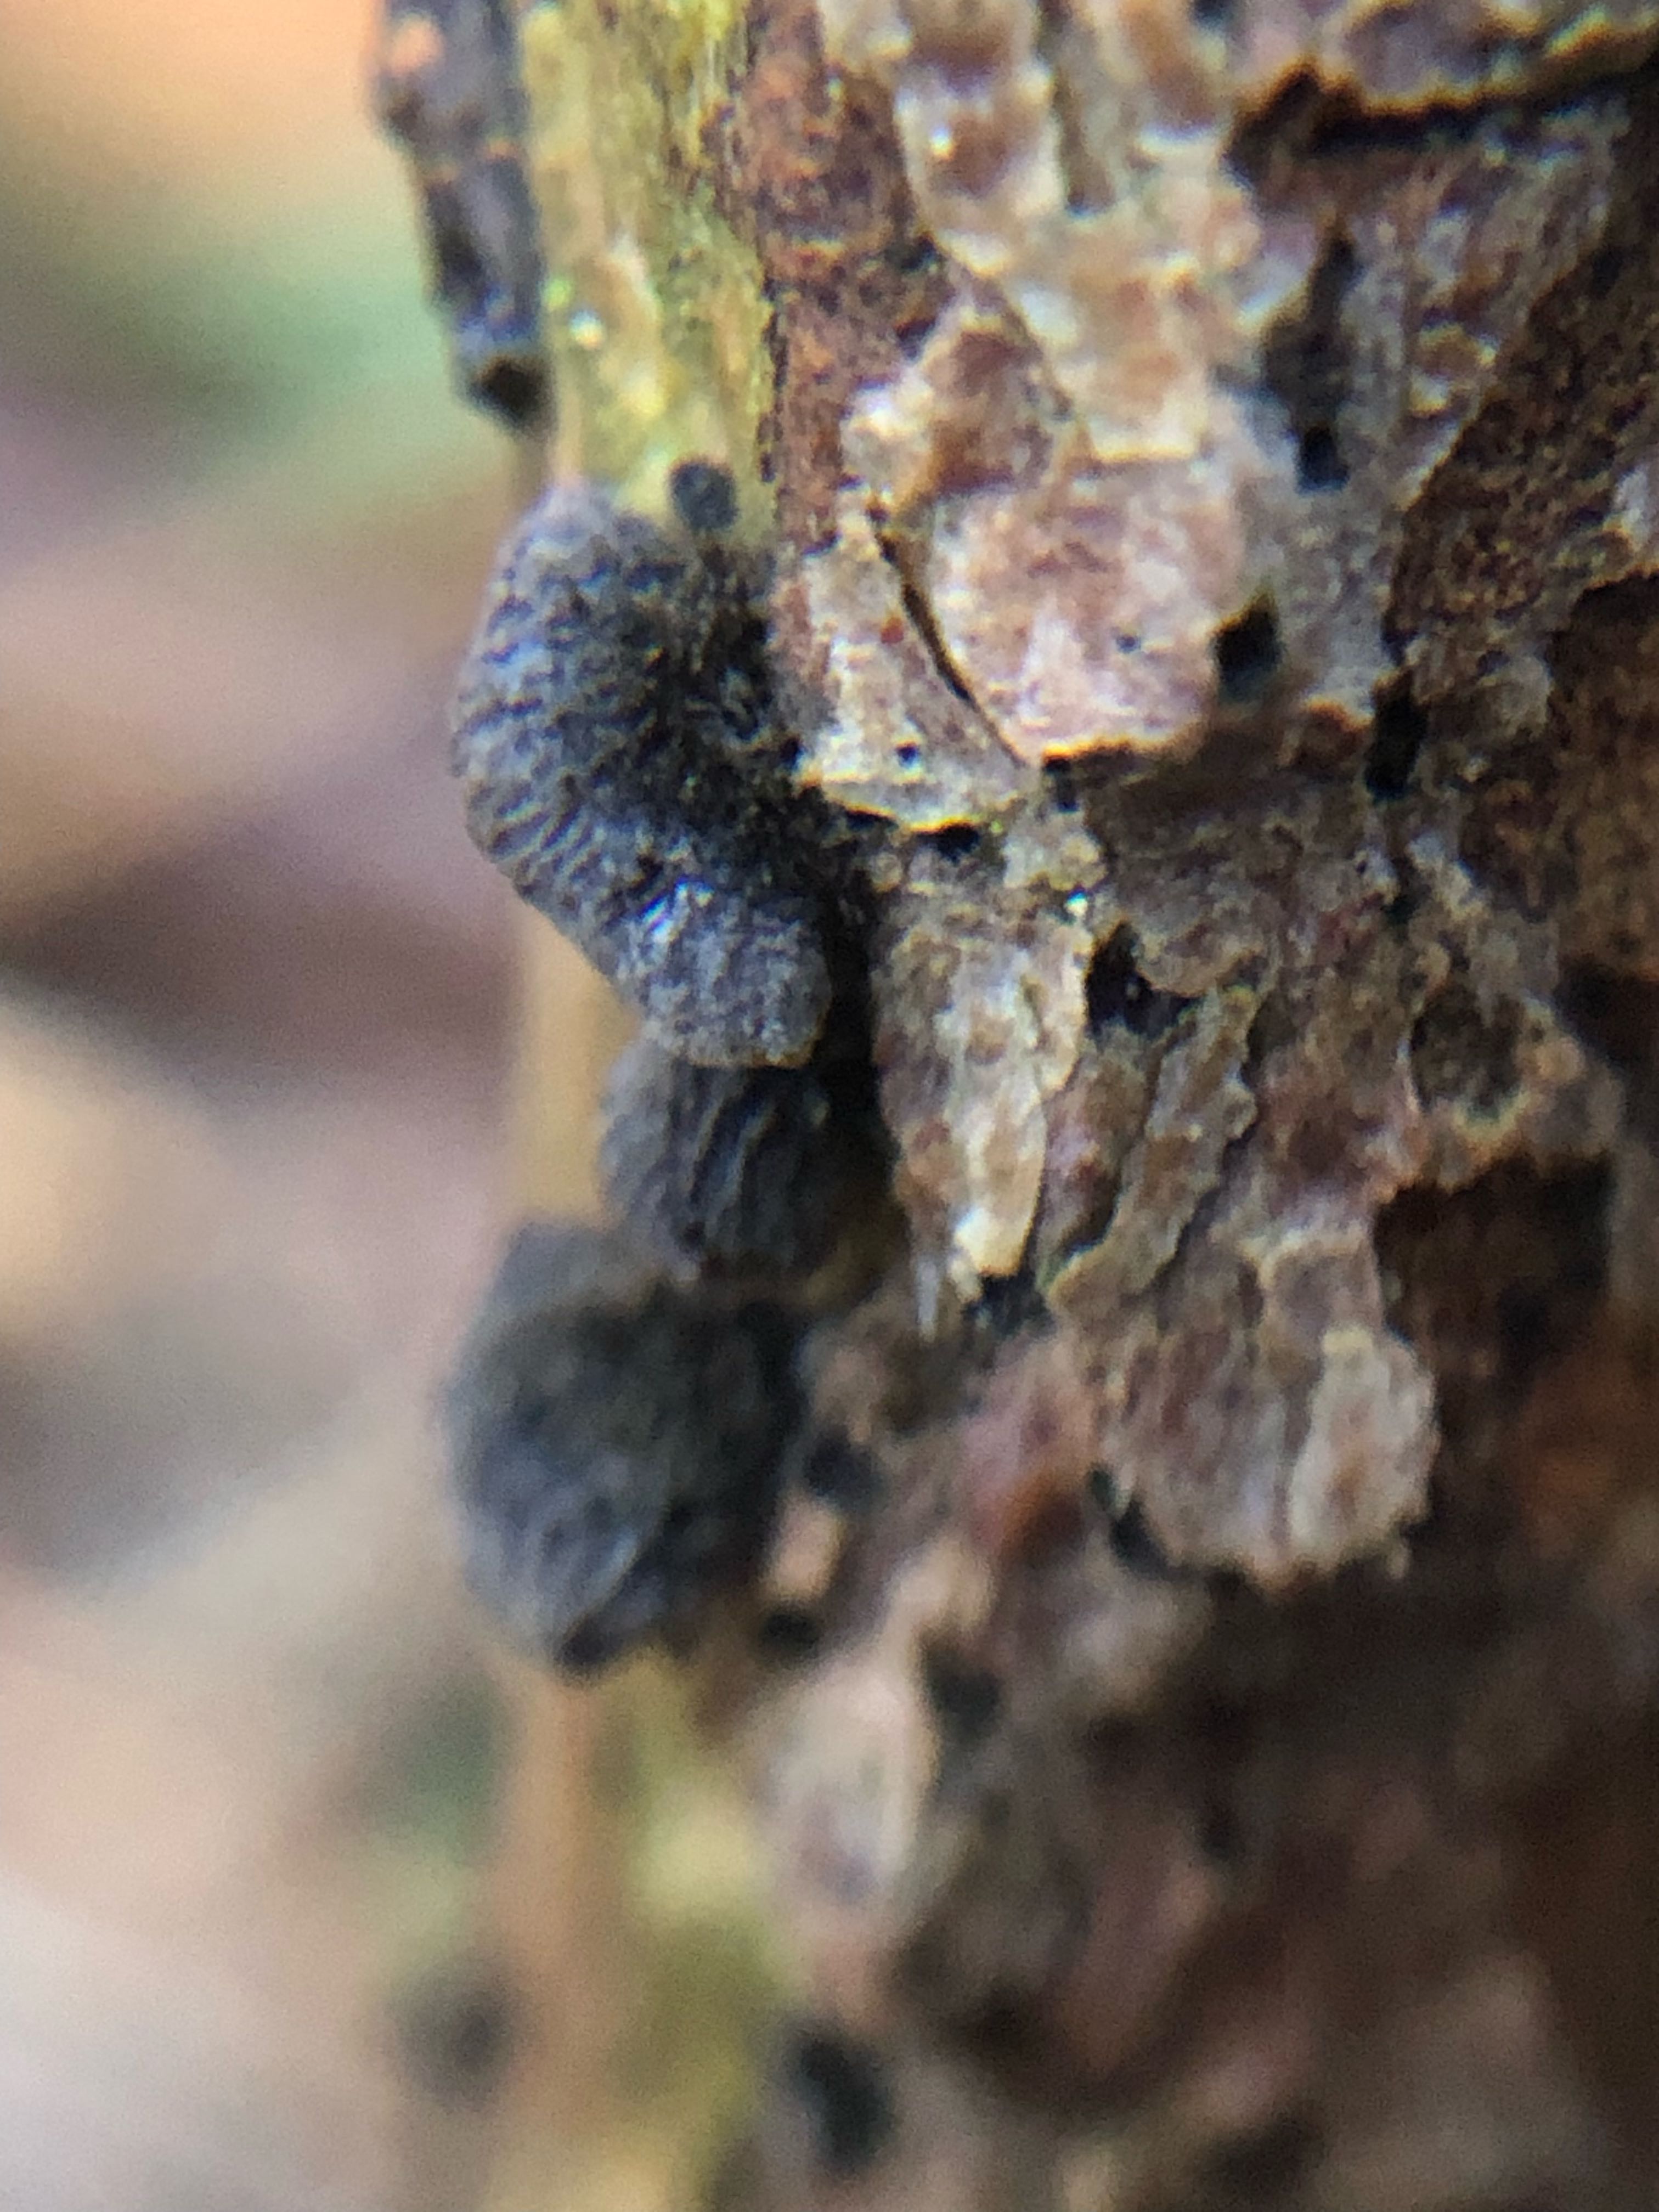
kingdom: Fungi
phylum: Basidiomycota
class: Agaricomycetes
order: Agaricales
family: Pleurotaceae
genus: Resupinatus
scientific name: Resupinatus trichotis
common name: mørkfiltet barkhat
